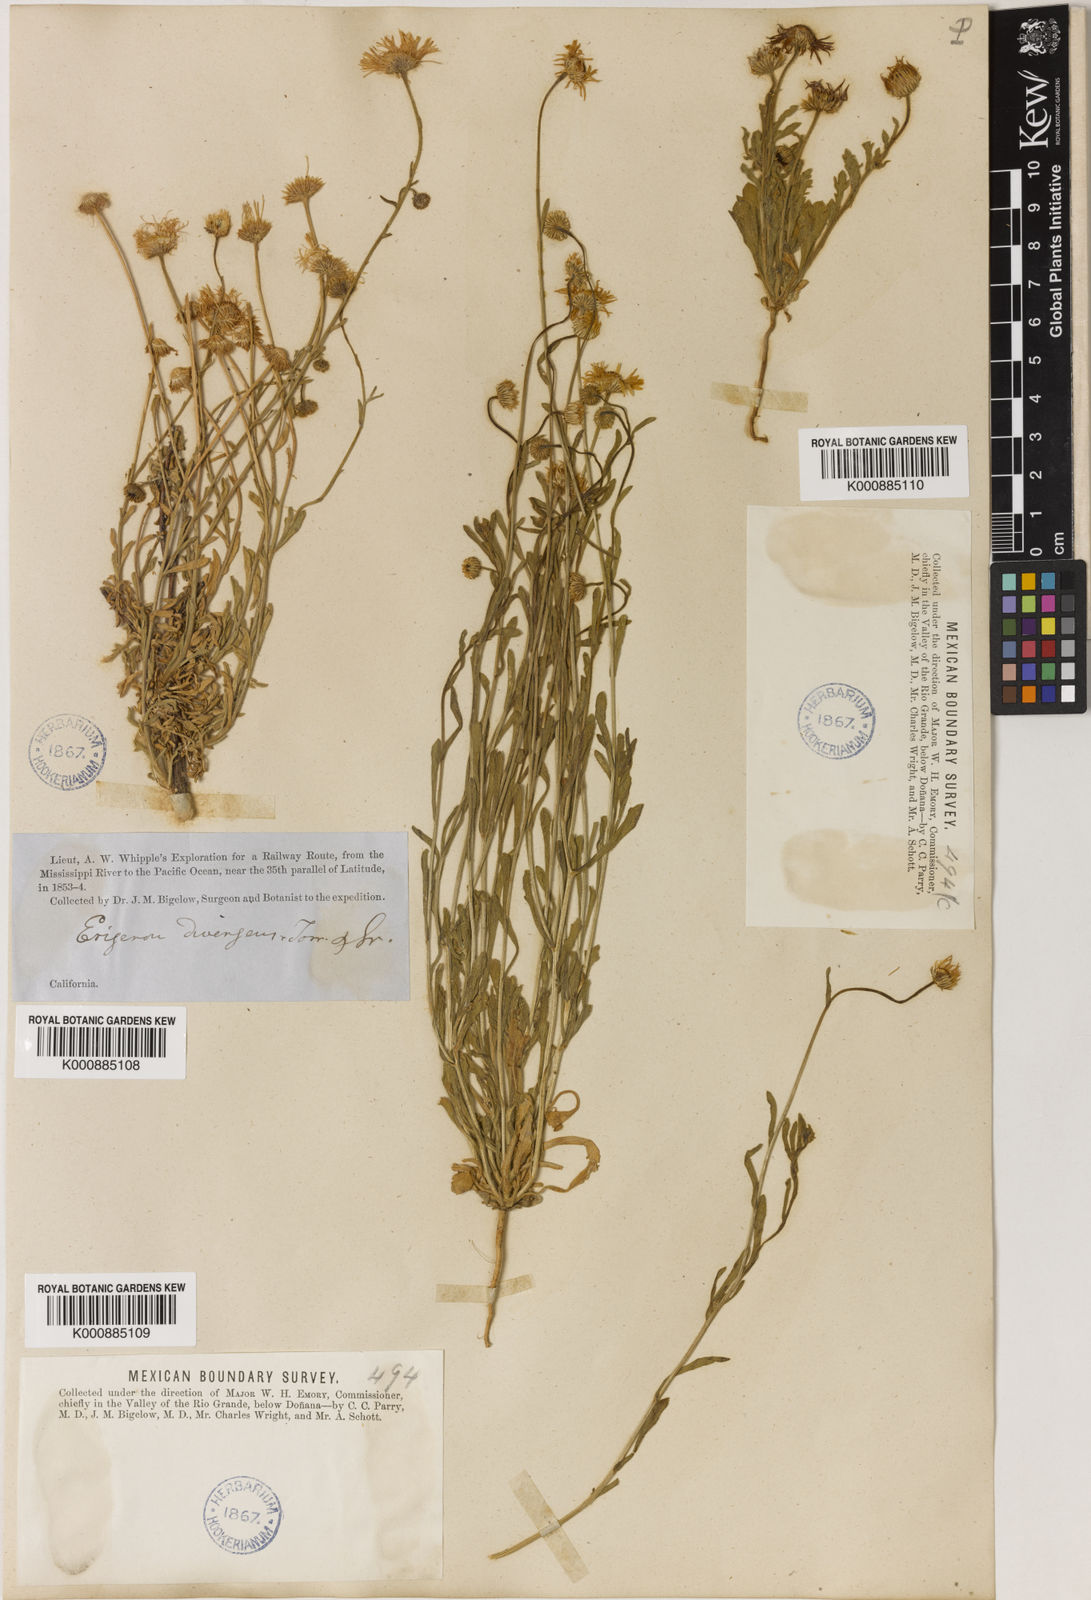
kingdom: Plantae
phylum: Tracheophyta
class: Magnoliopsida
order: Asterales
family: Asteraceae
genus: Erigeron
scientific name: Erigeron divergens
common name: Diffuse fleabane
